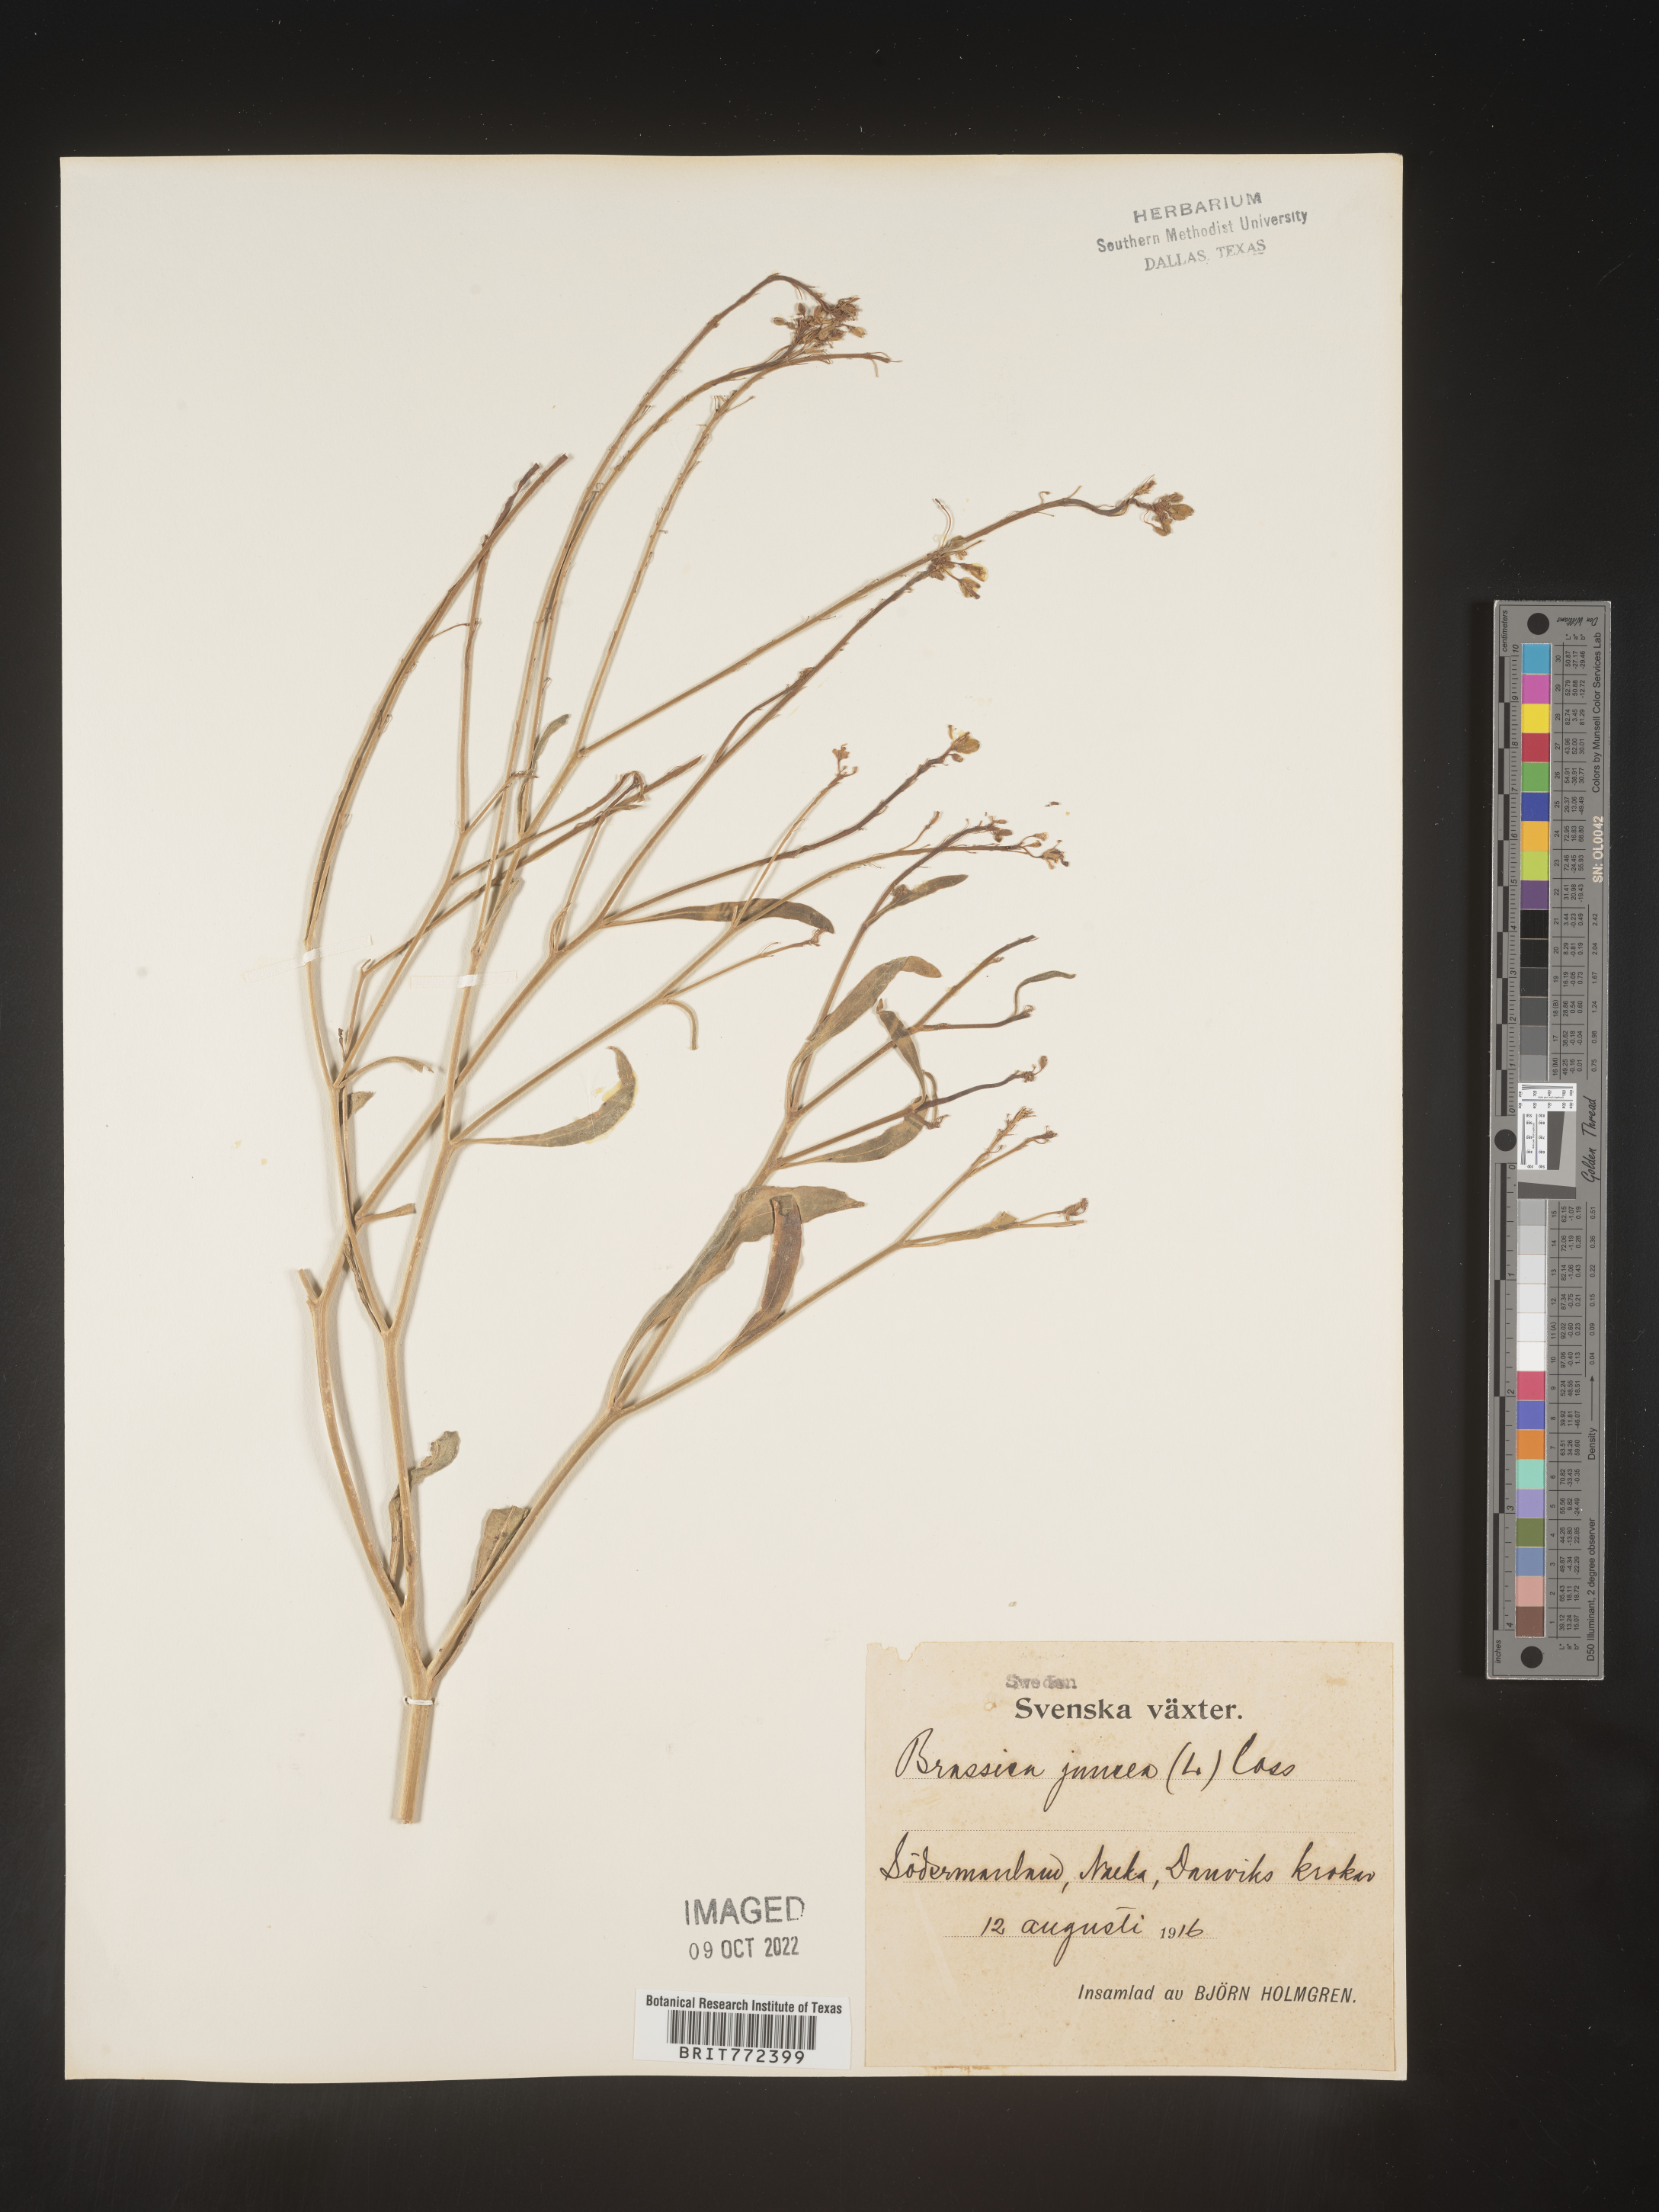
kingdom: Plantae
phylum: Tracheophyta
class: Magnoliopsida
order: Brassicales
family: Brassicaceae
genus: Brassica
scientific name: Brassica
